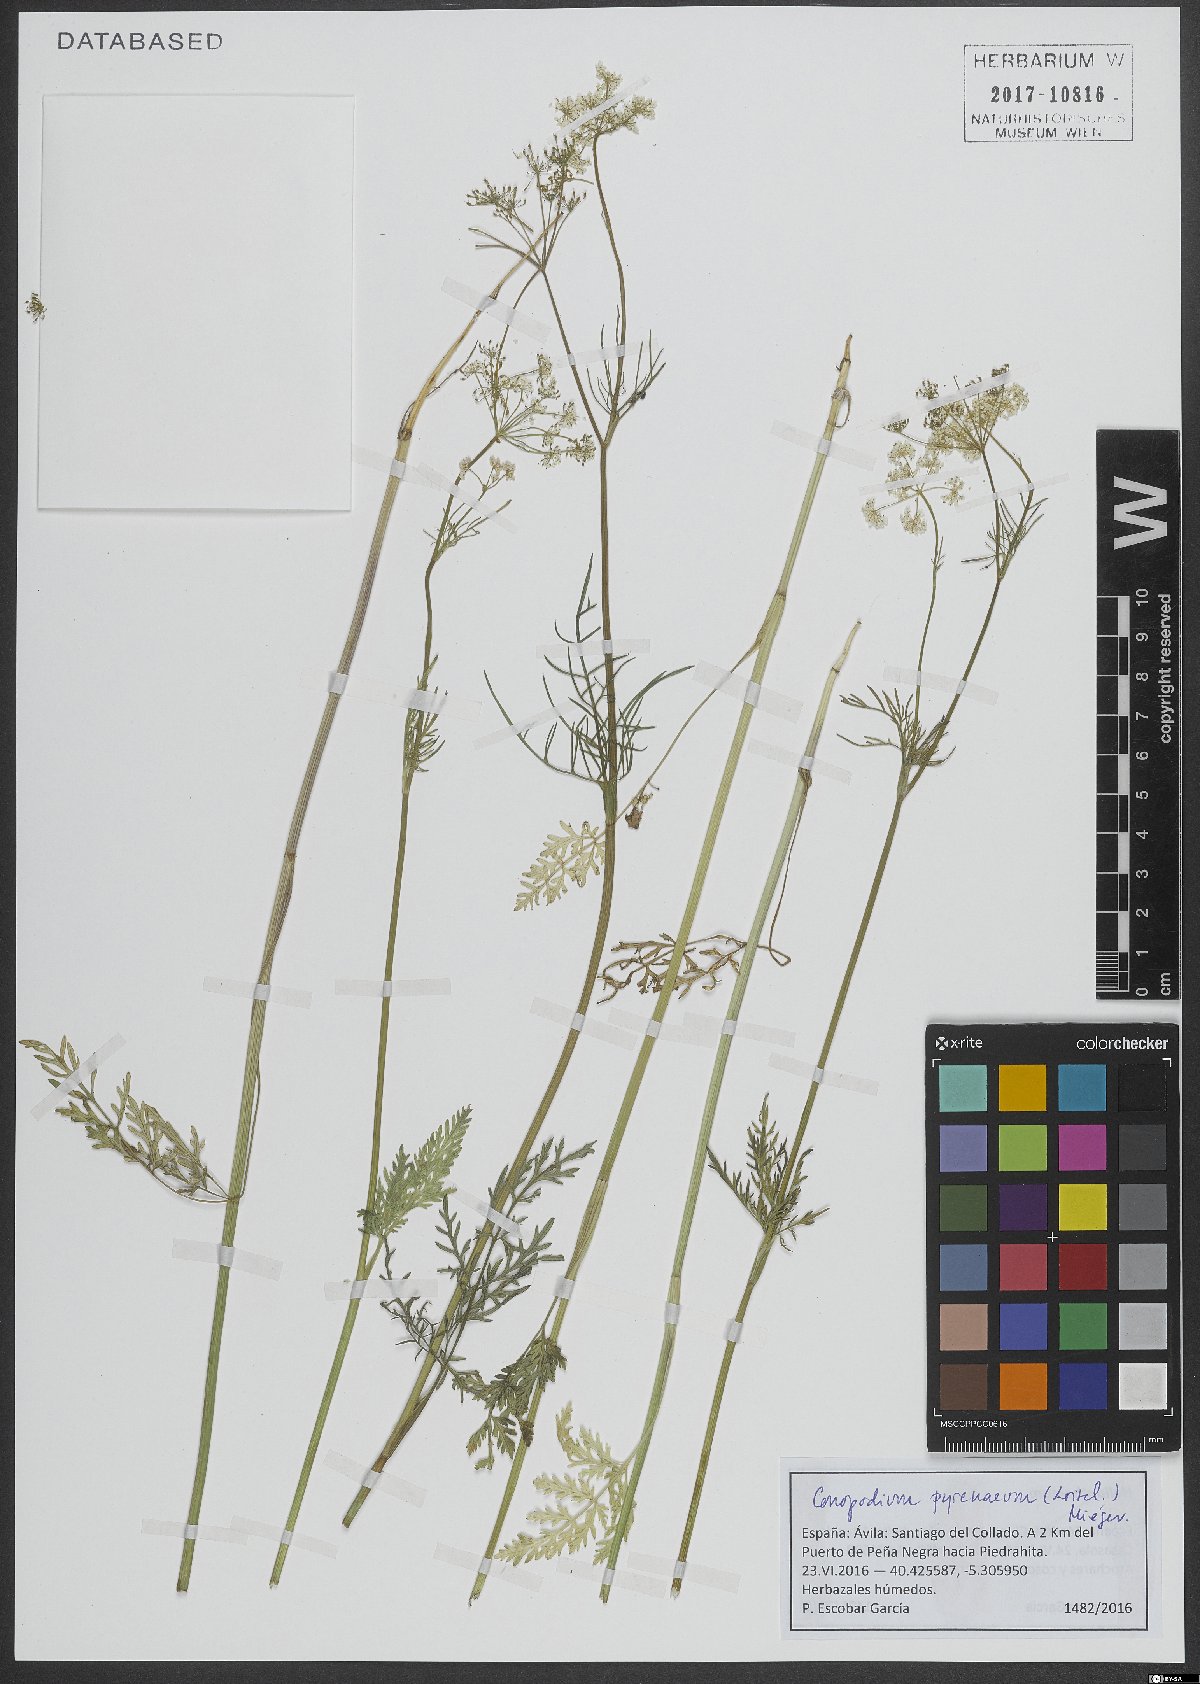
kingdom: Plantae
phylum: Tracheophyta
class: Magnoliopsida
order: Apiales
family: Apiaceae
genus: Conopodium
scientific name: Conopodium pyrenaeum
